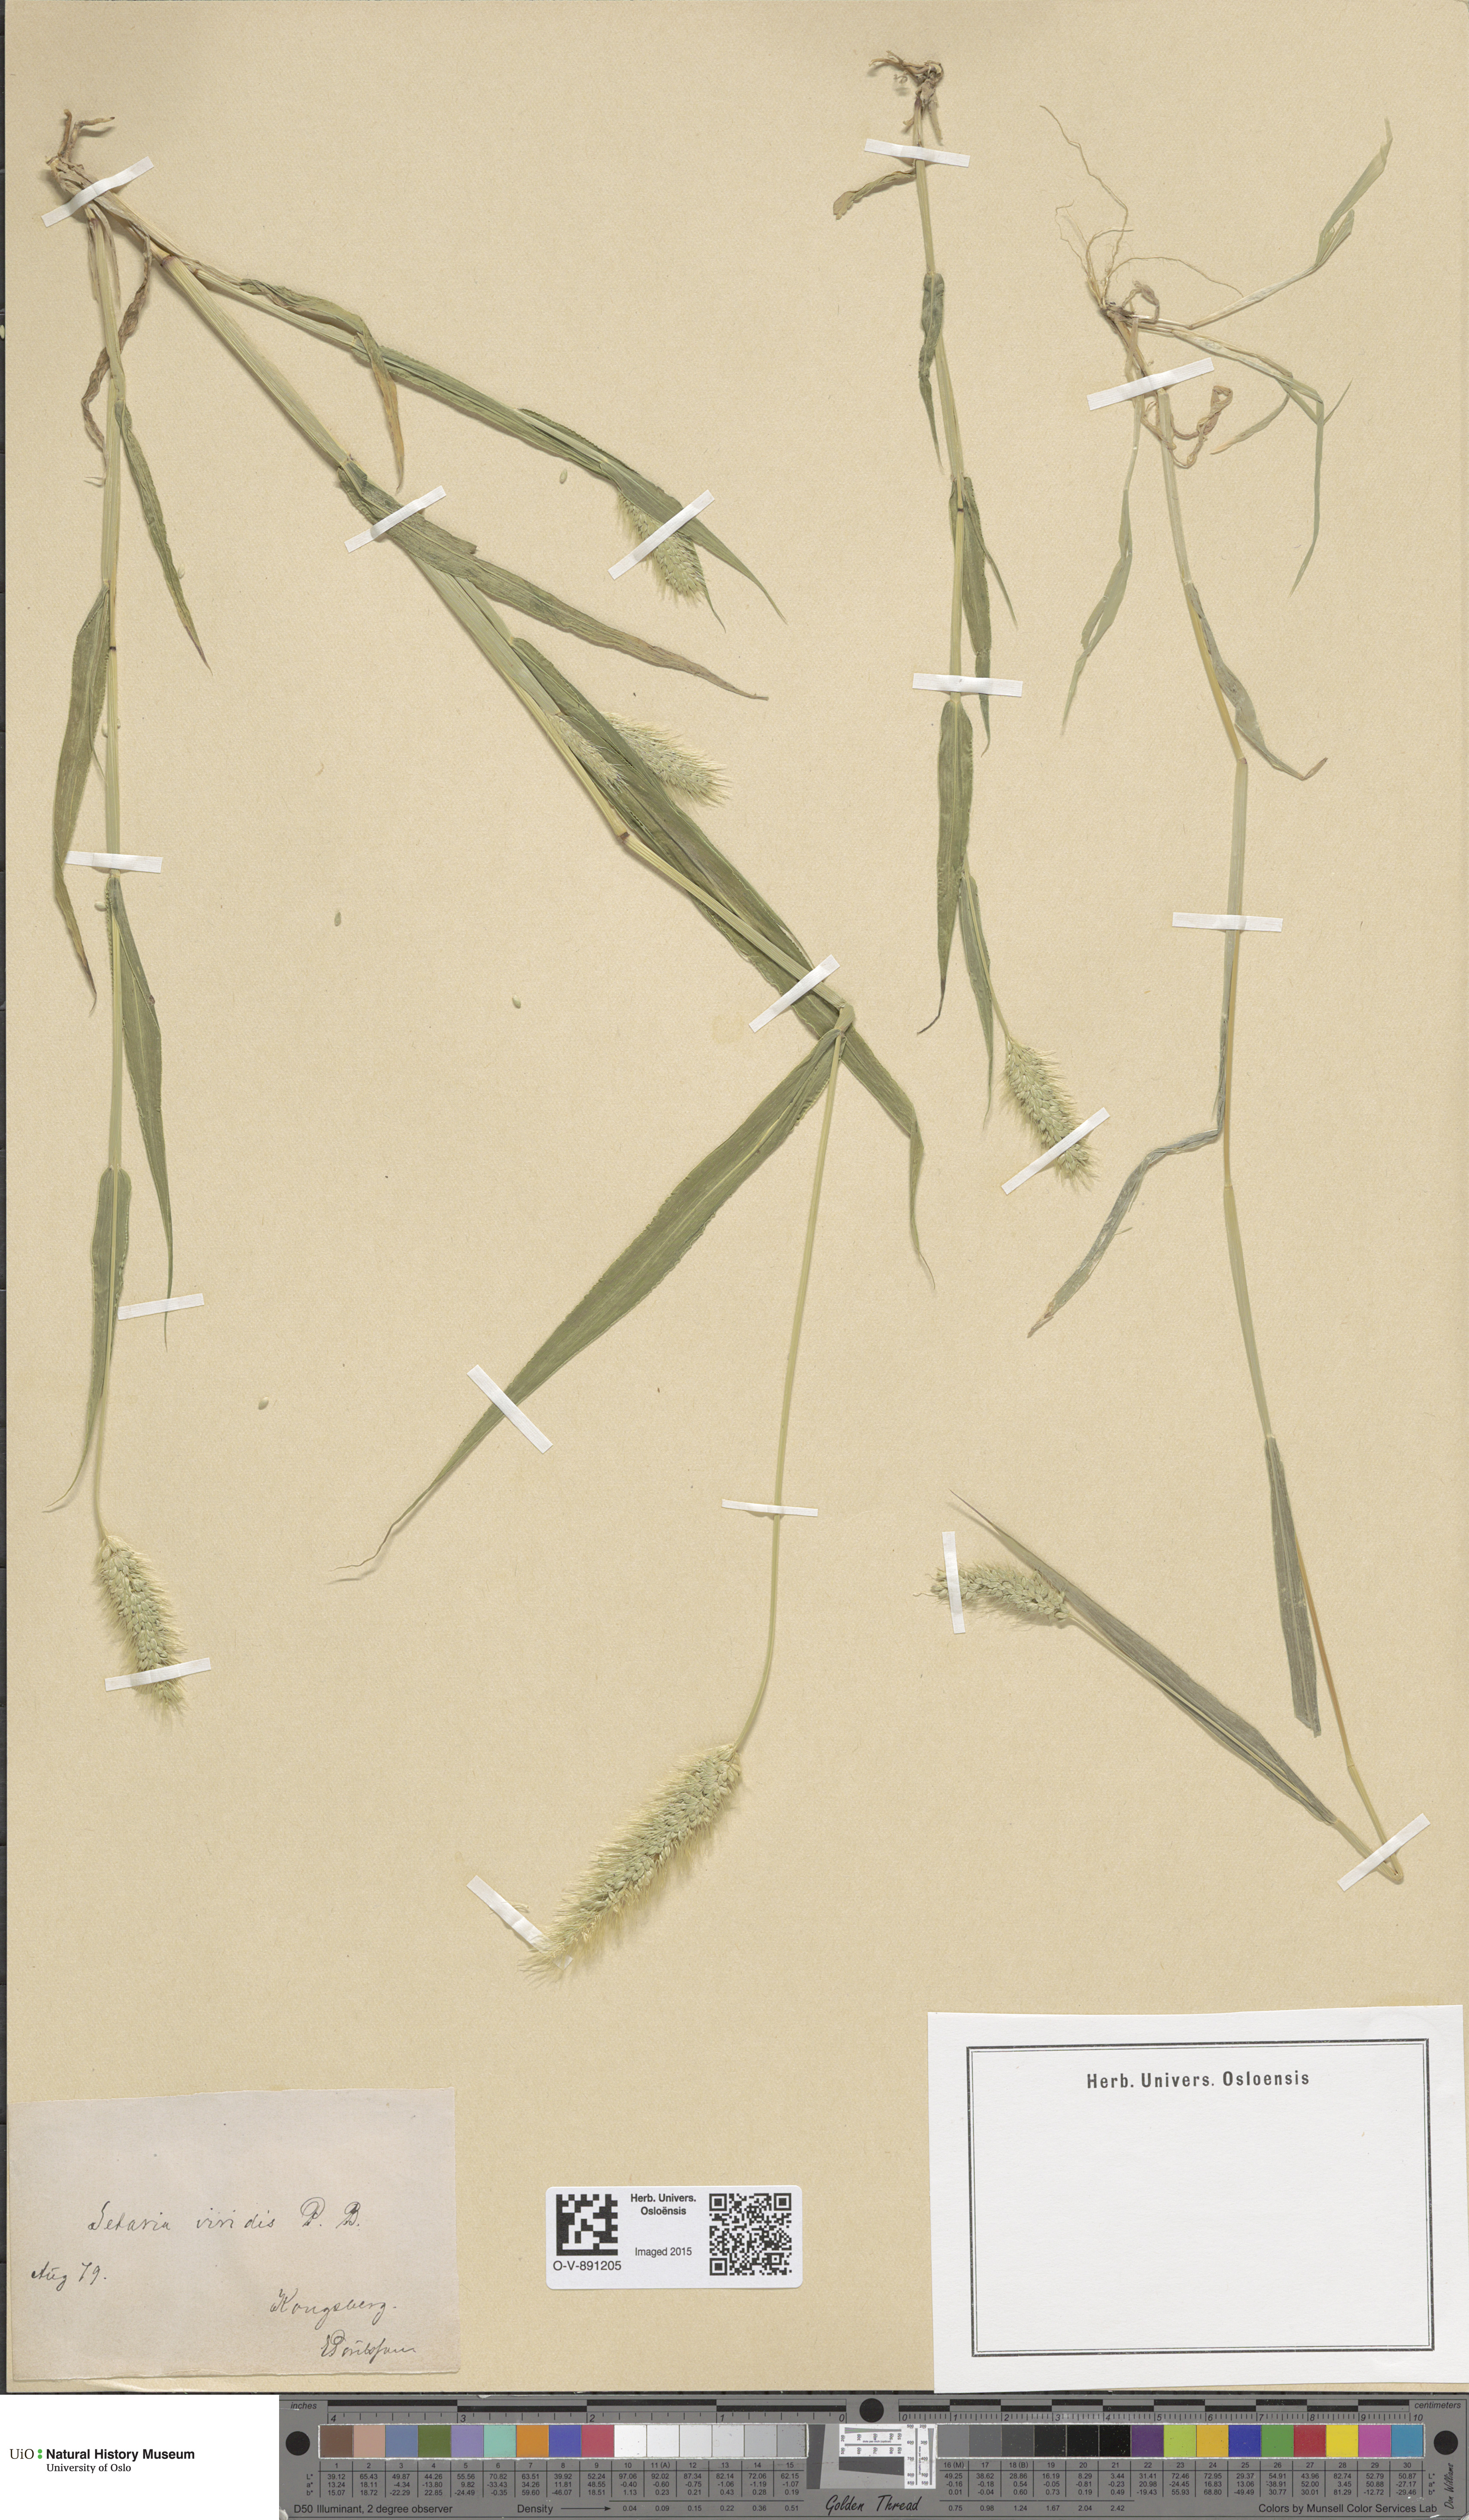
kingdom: Plantae
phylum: Tracheophyta
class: Liliopsida
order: Poales
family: Poaceae
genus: Setaria
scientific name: Setaria viridis
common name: Green bristlegrass
